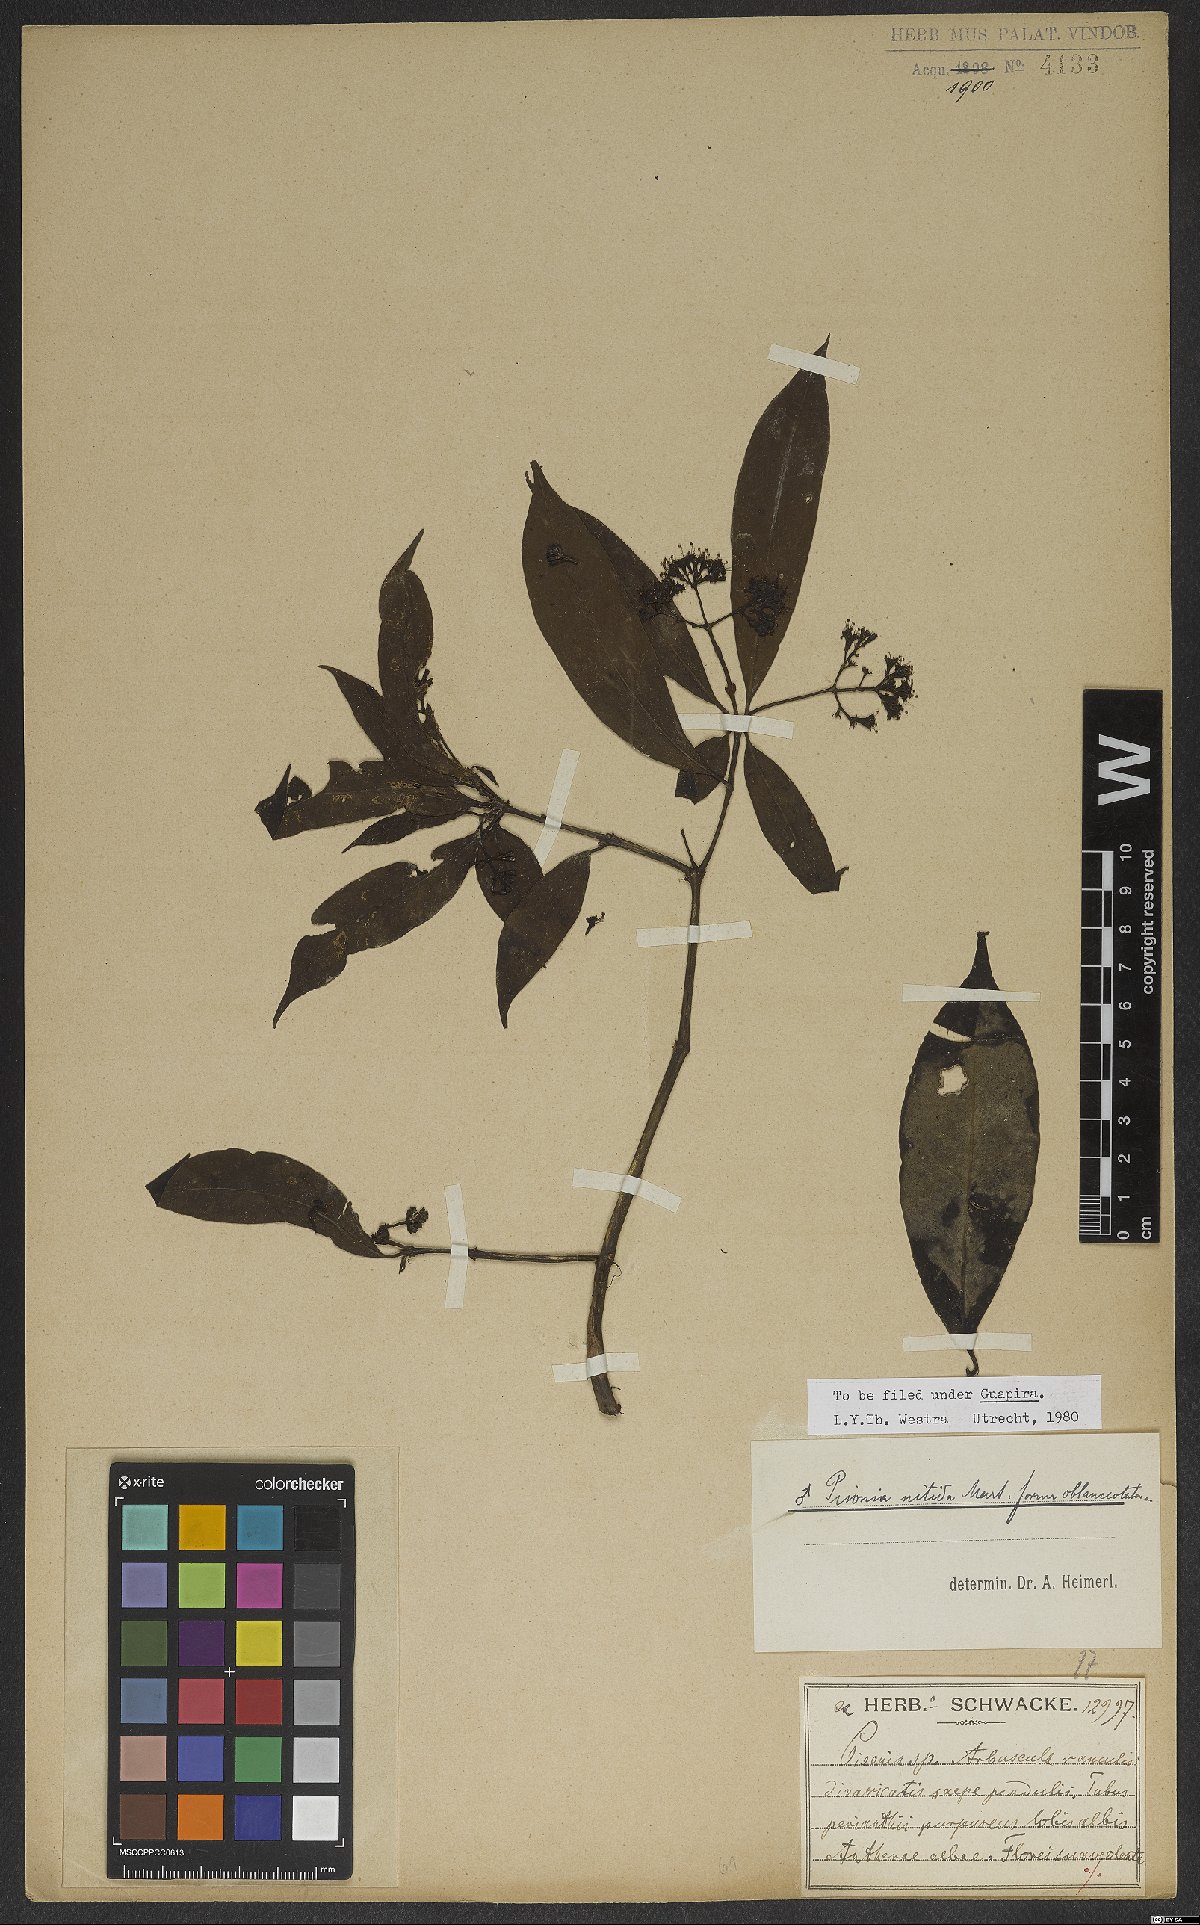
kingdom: Plantae
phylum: Tracheophyta
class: Magnoliopsida
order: Caryophyllales
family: Nyctaginaceae
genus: Guapira
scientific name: Guapira nitida
